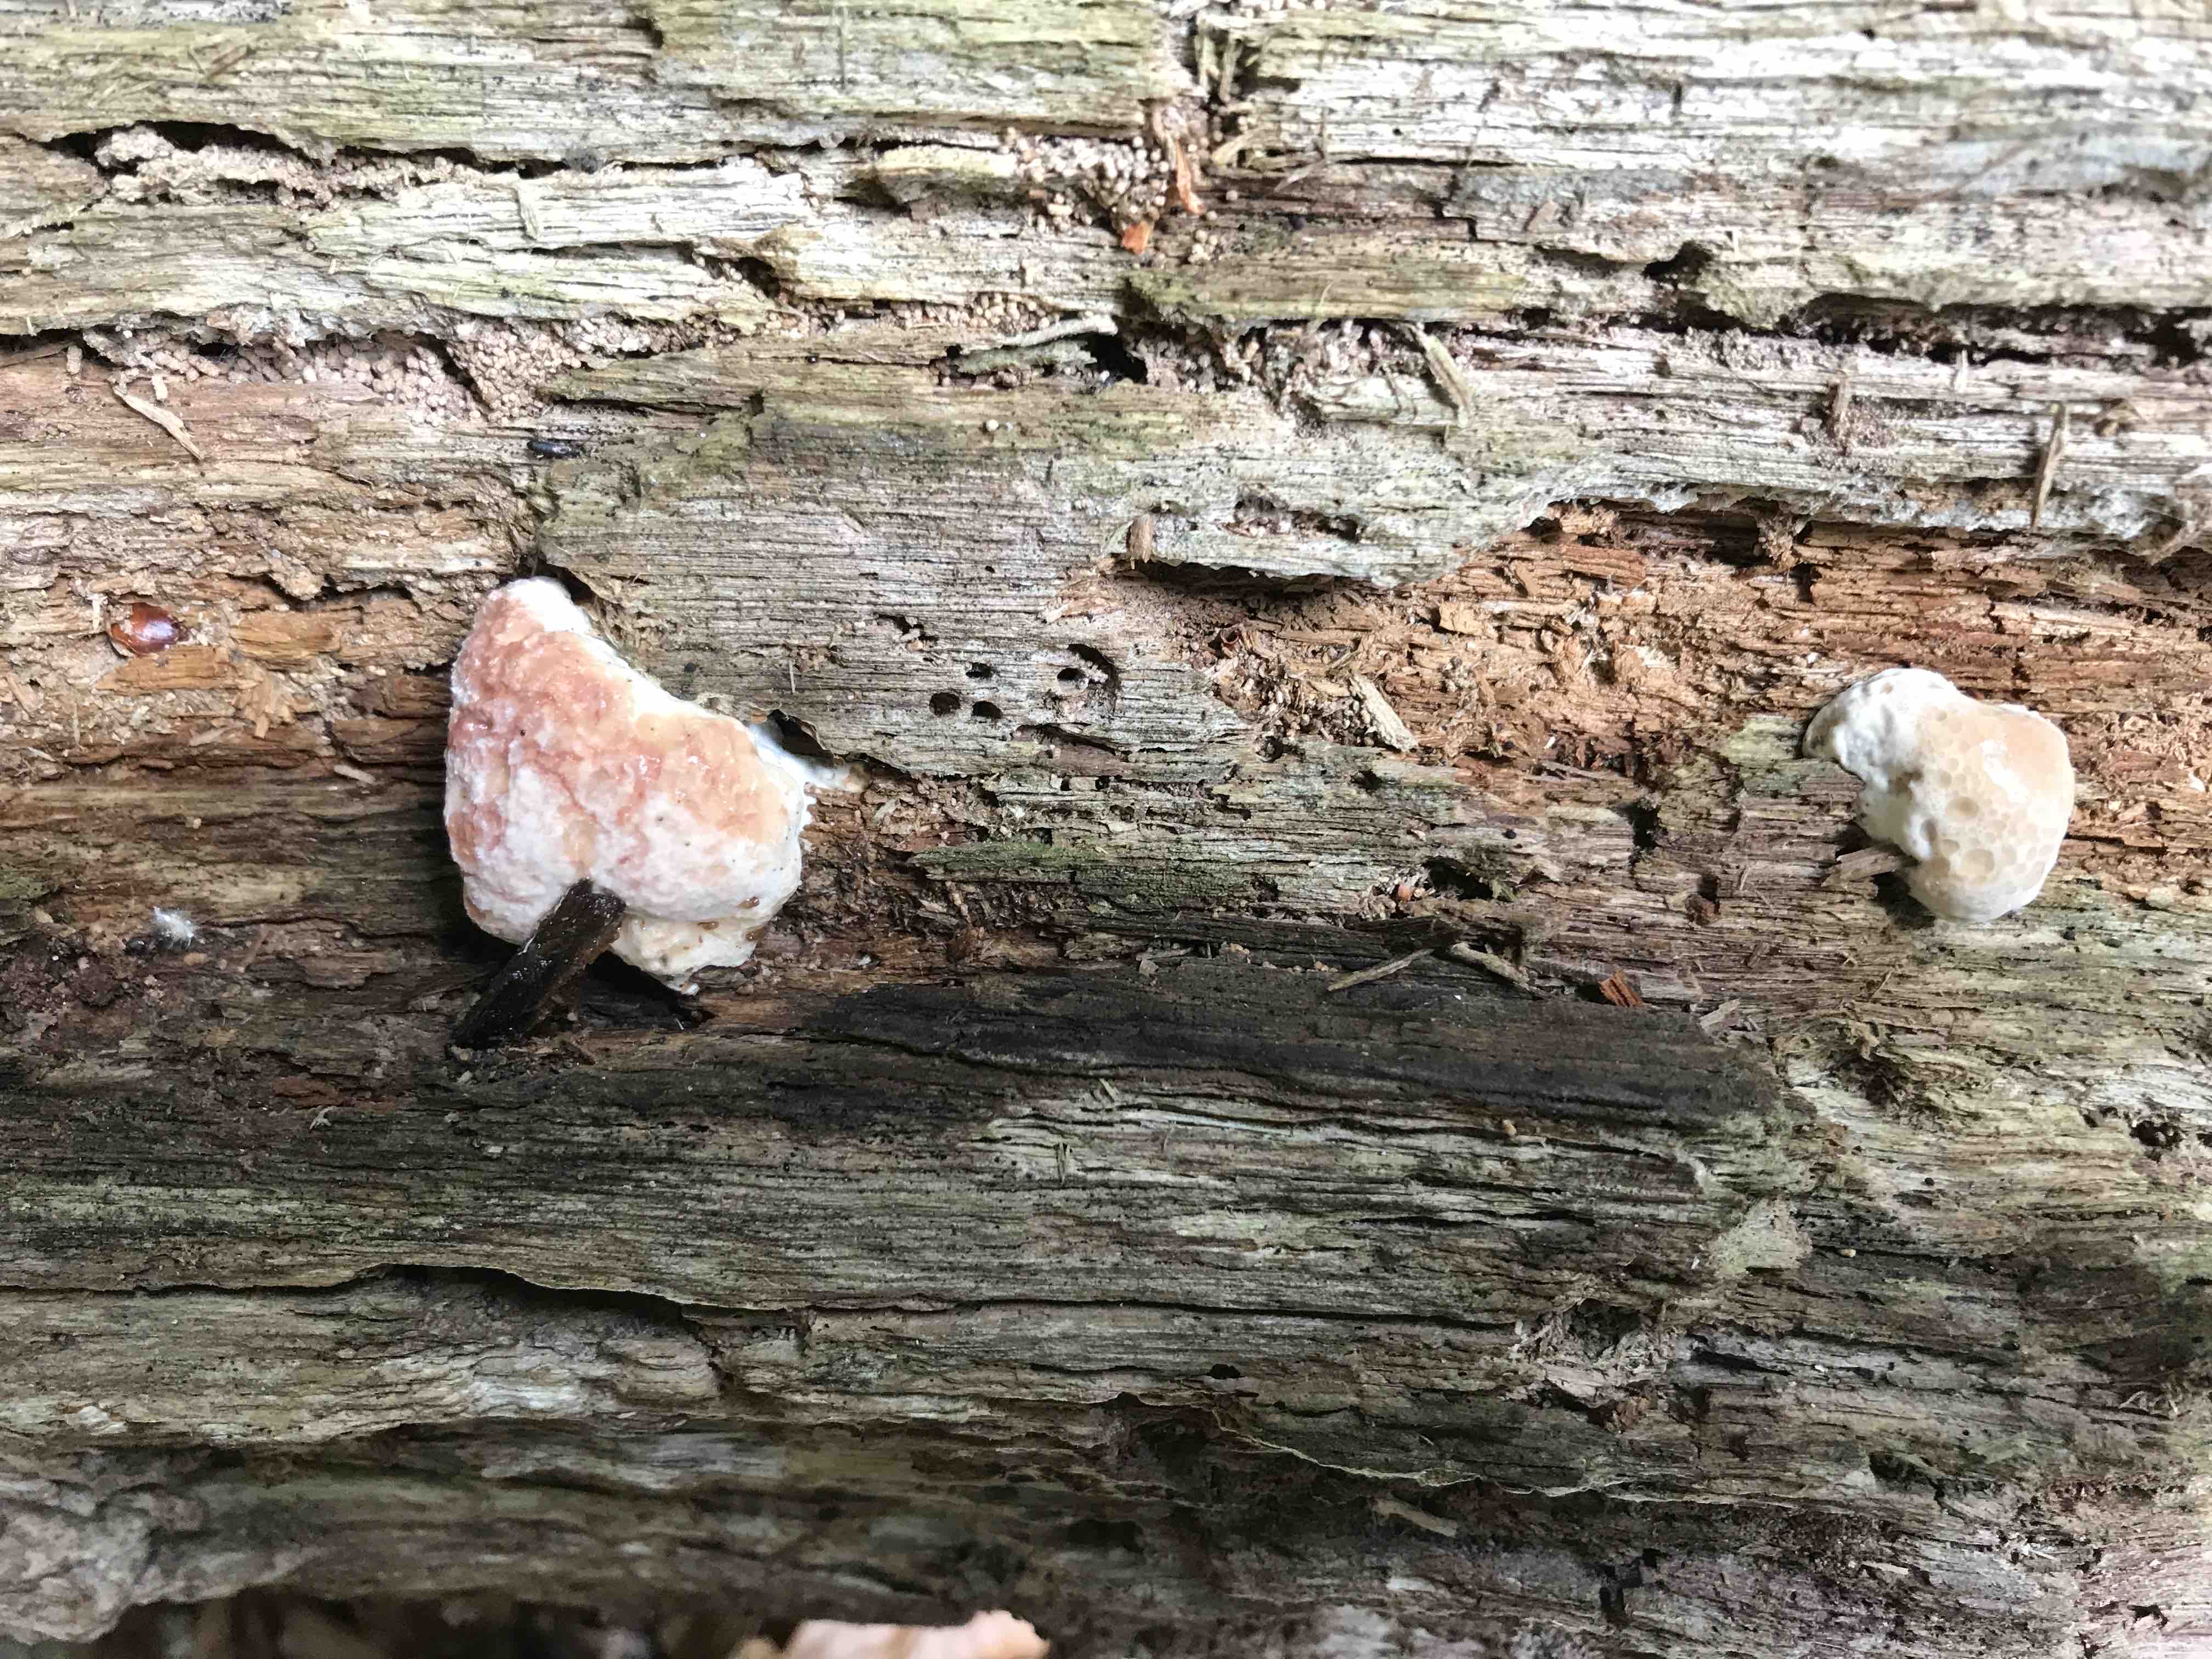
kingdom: Fungi
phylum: Basidiomycota
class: Agaricomycetes
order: Polyporales
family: Fomitopsidaceae
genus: Fomitopsis
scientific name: Fomitopsis pinicola
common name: randbæltet hovporesvamp
